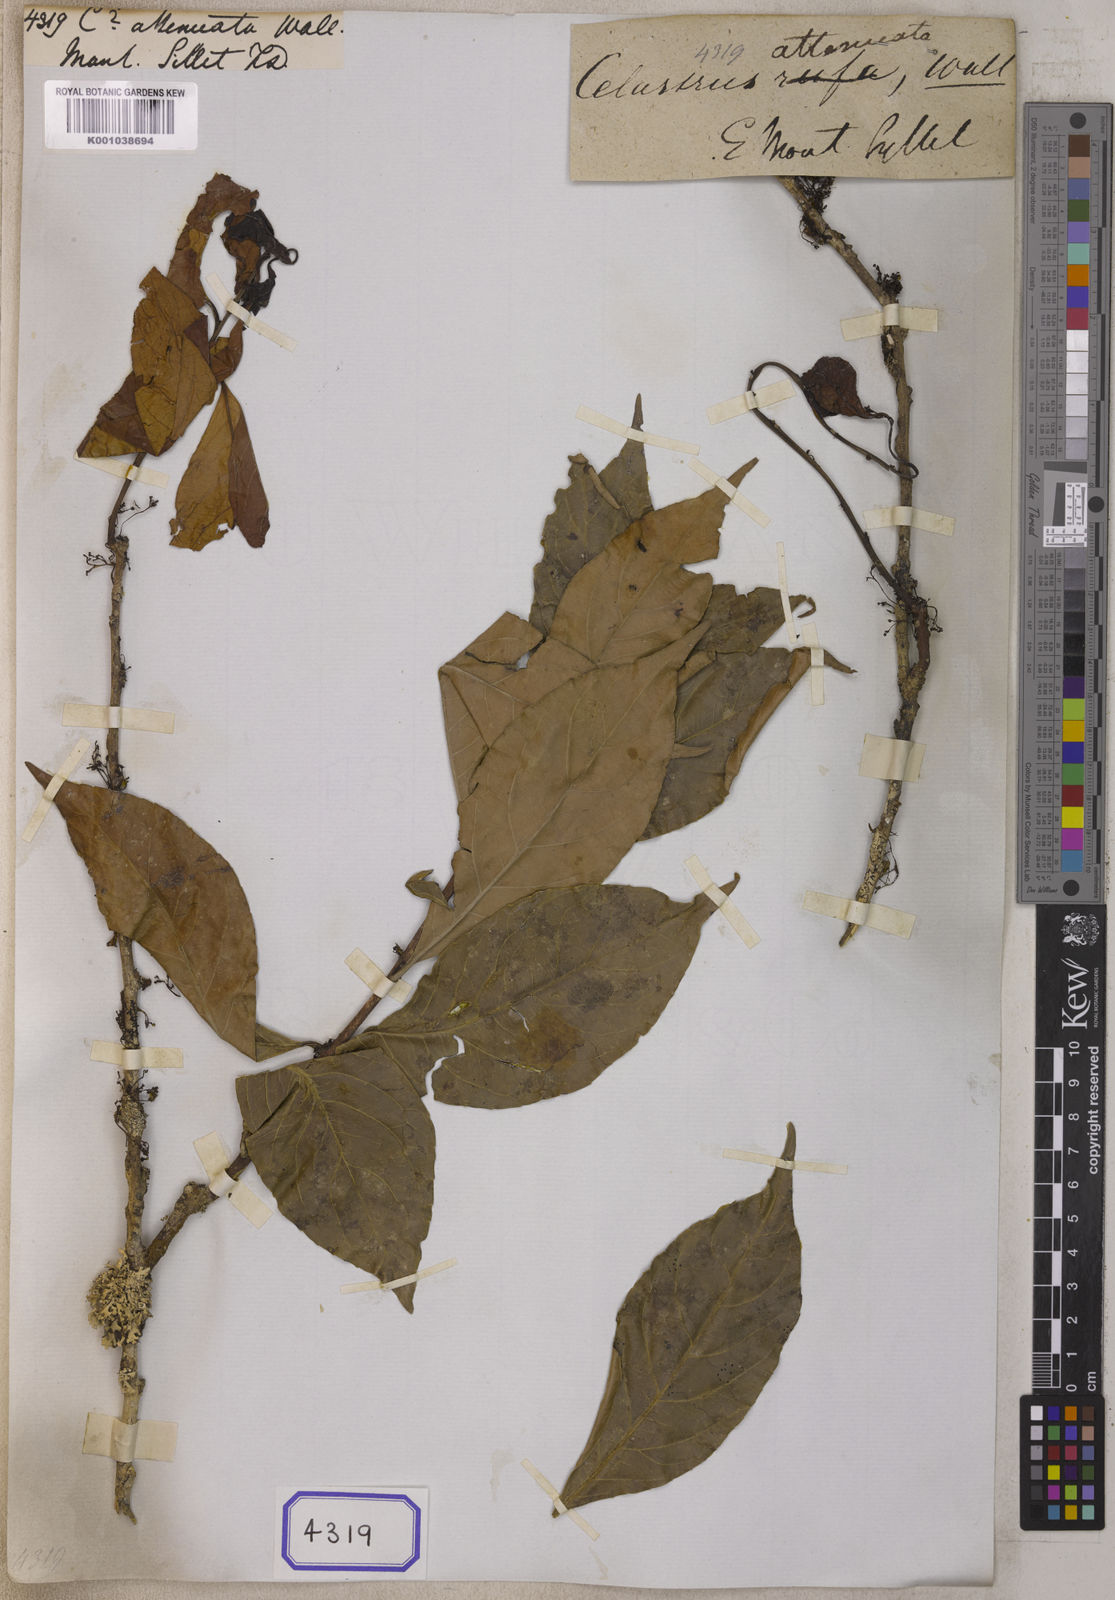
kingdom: Plantae
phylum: Tracheophyta
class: Magnoliopsida
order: Celastrales
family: Celastraceae
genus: Celastrus
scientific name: Celastrus stylosus
